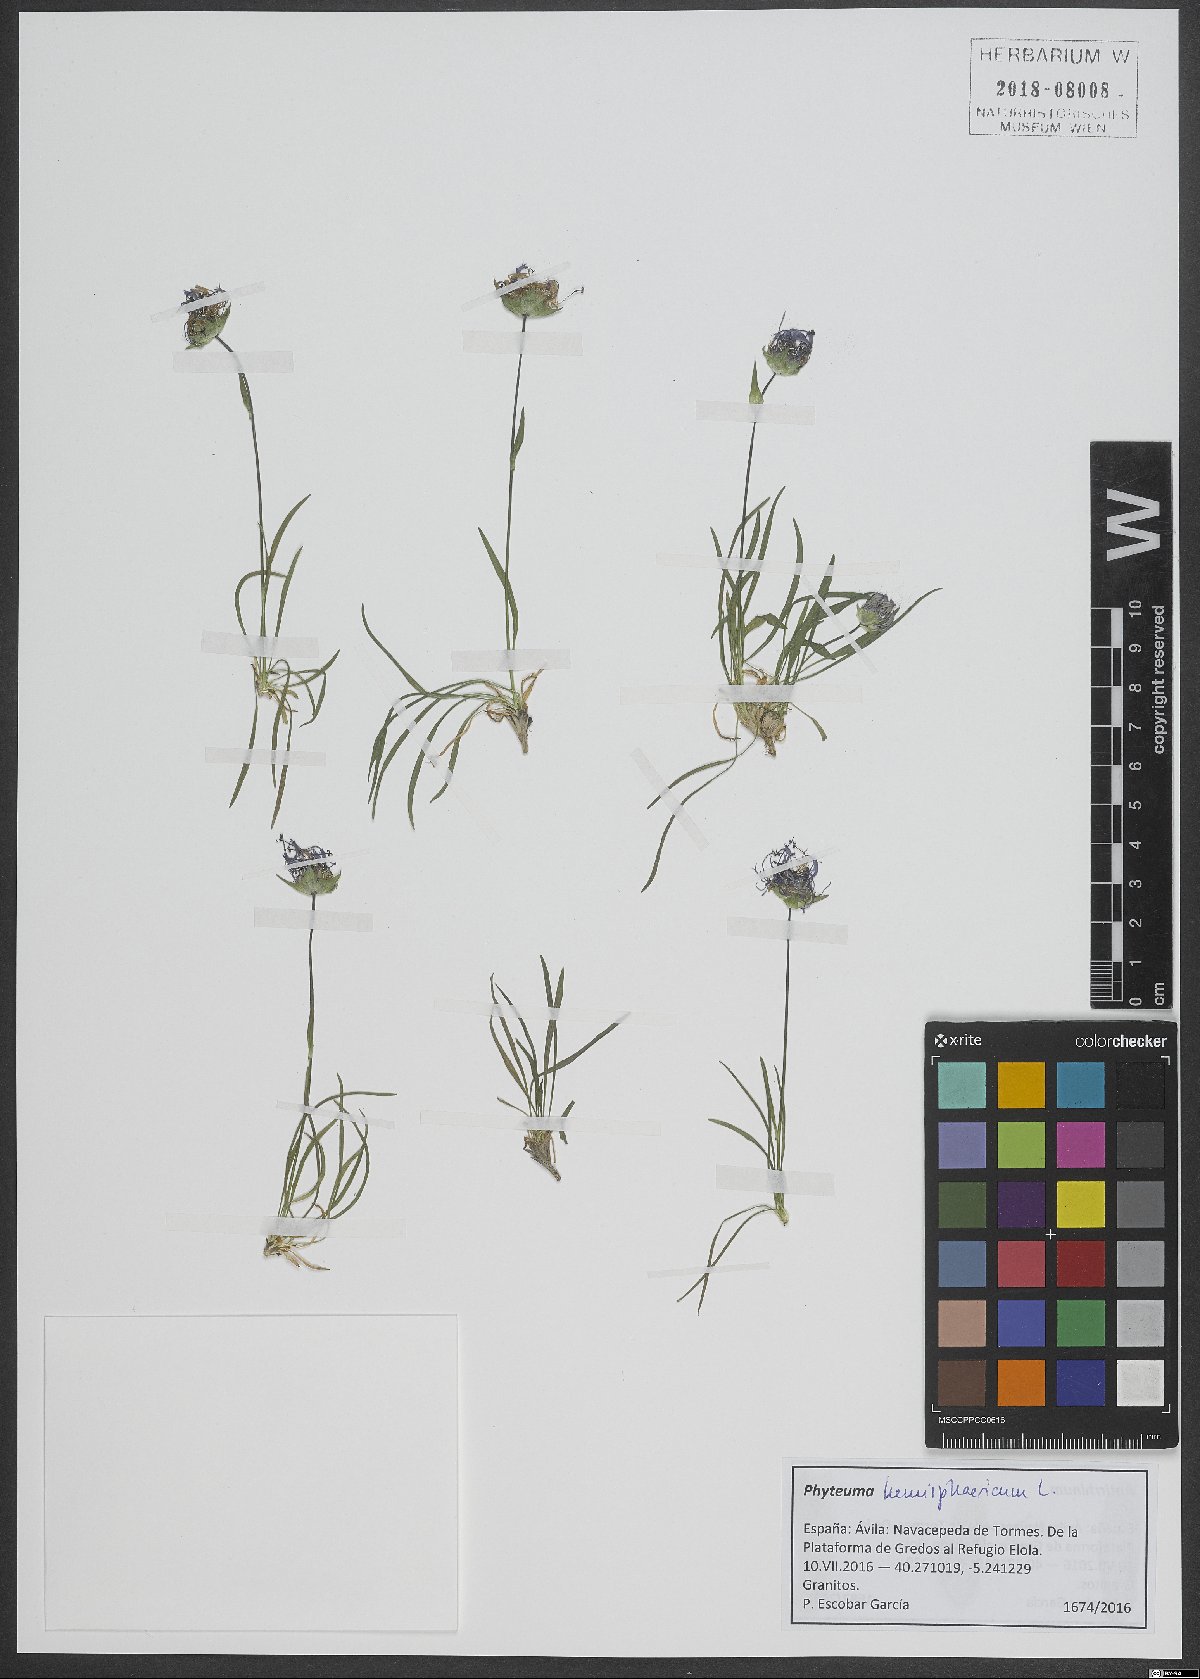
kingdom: Plantae
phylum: Tracheophyta
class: Magnoliopsida
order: Asterales
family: Campanulaceae
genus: Phyteuma
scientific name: Phyteuma hemisphaericum
